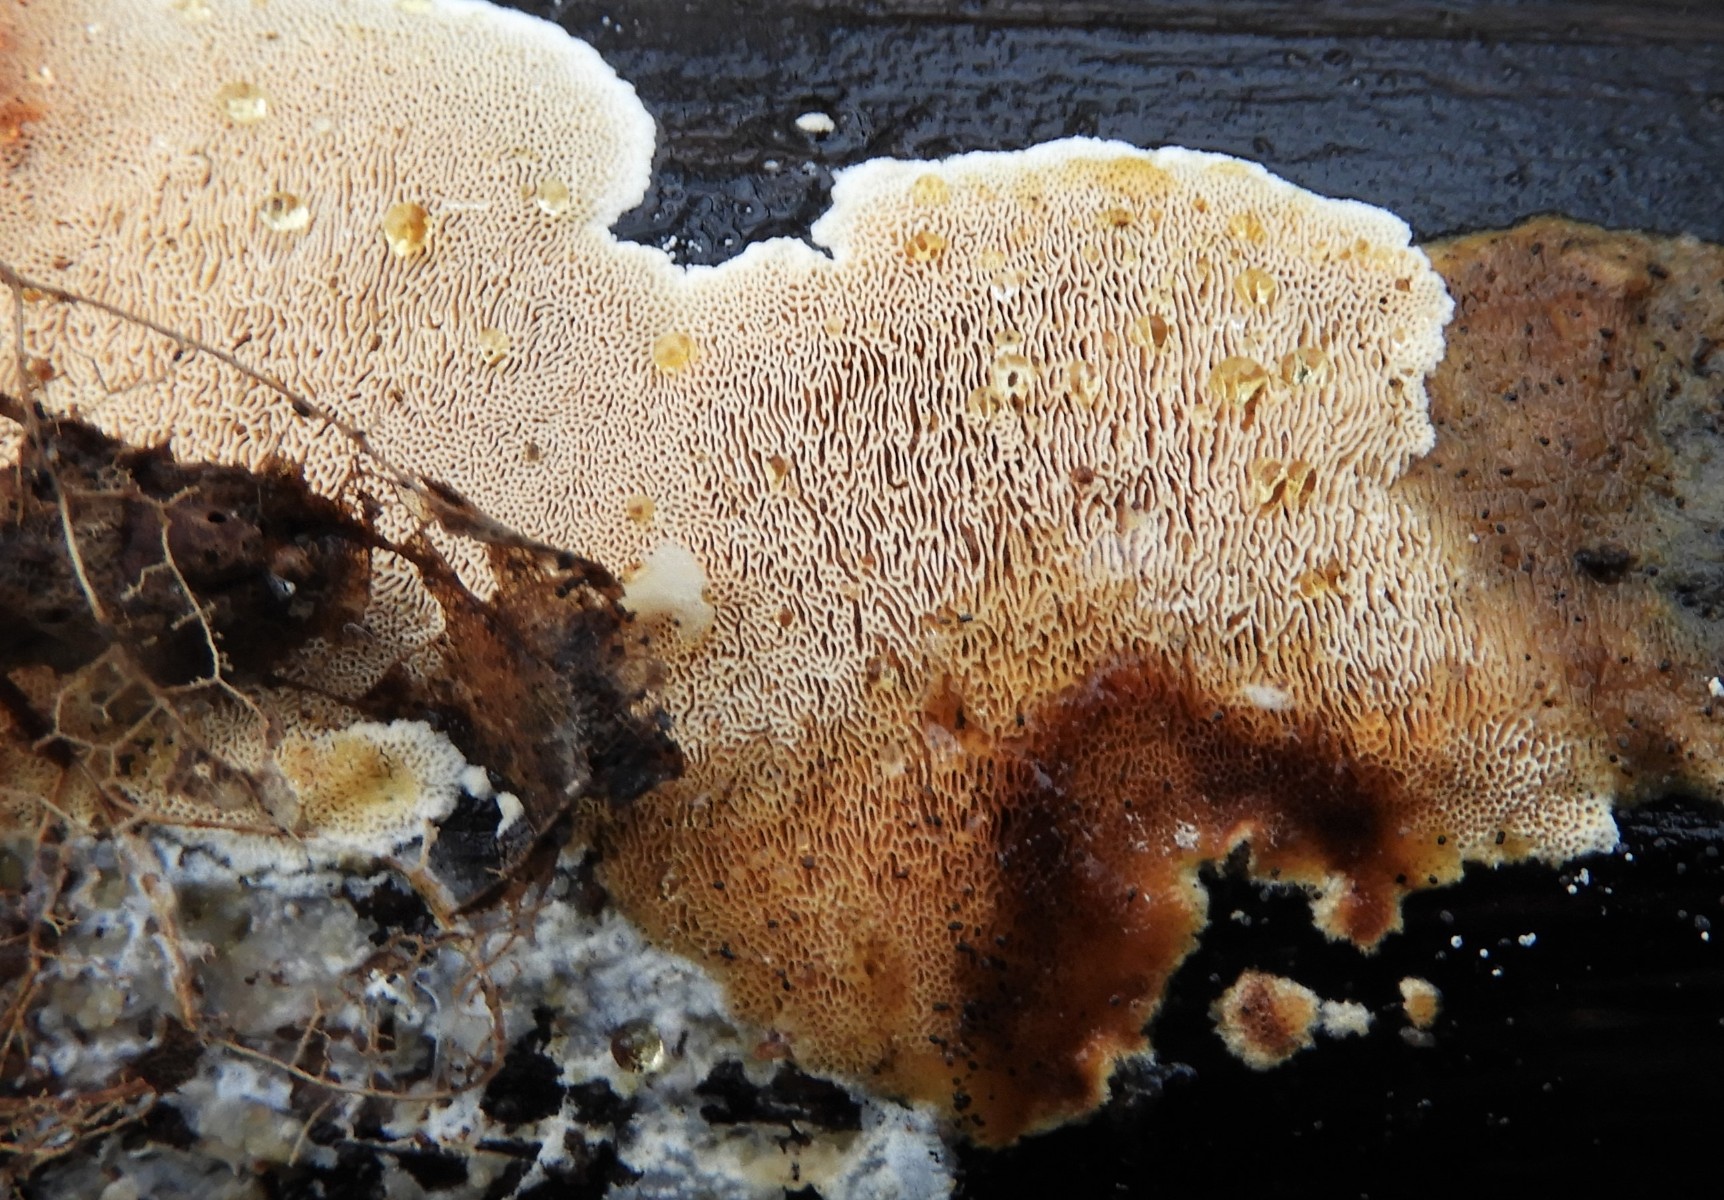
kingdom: Fungi
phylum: Basidiomycota
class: Agaricomycetes
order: Polyporales
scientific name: Polyporales
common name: poresvampordenen
